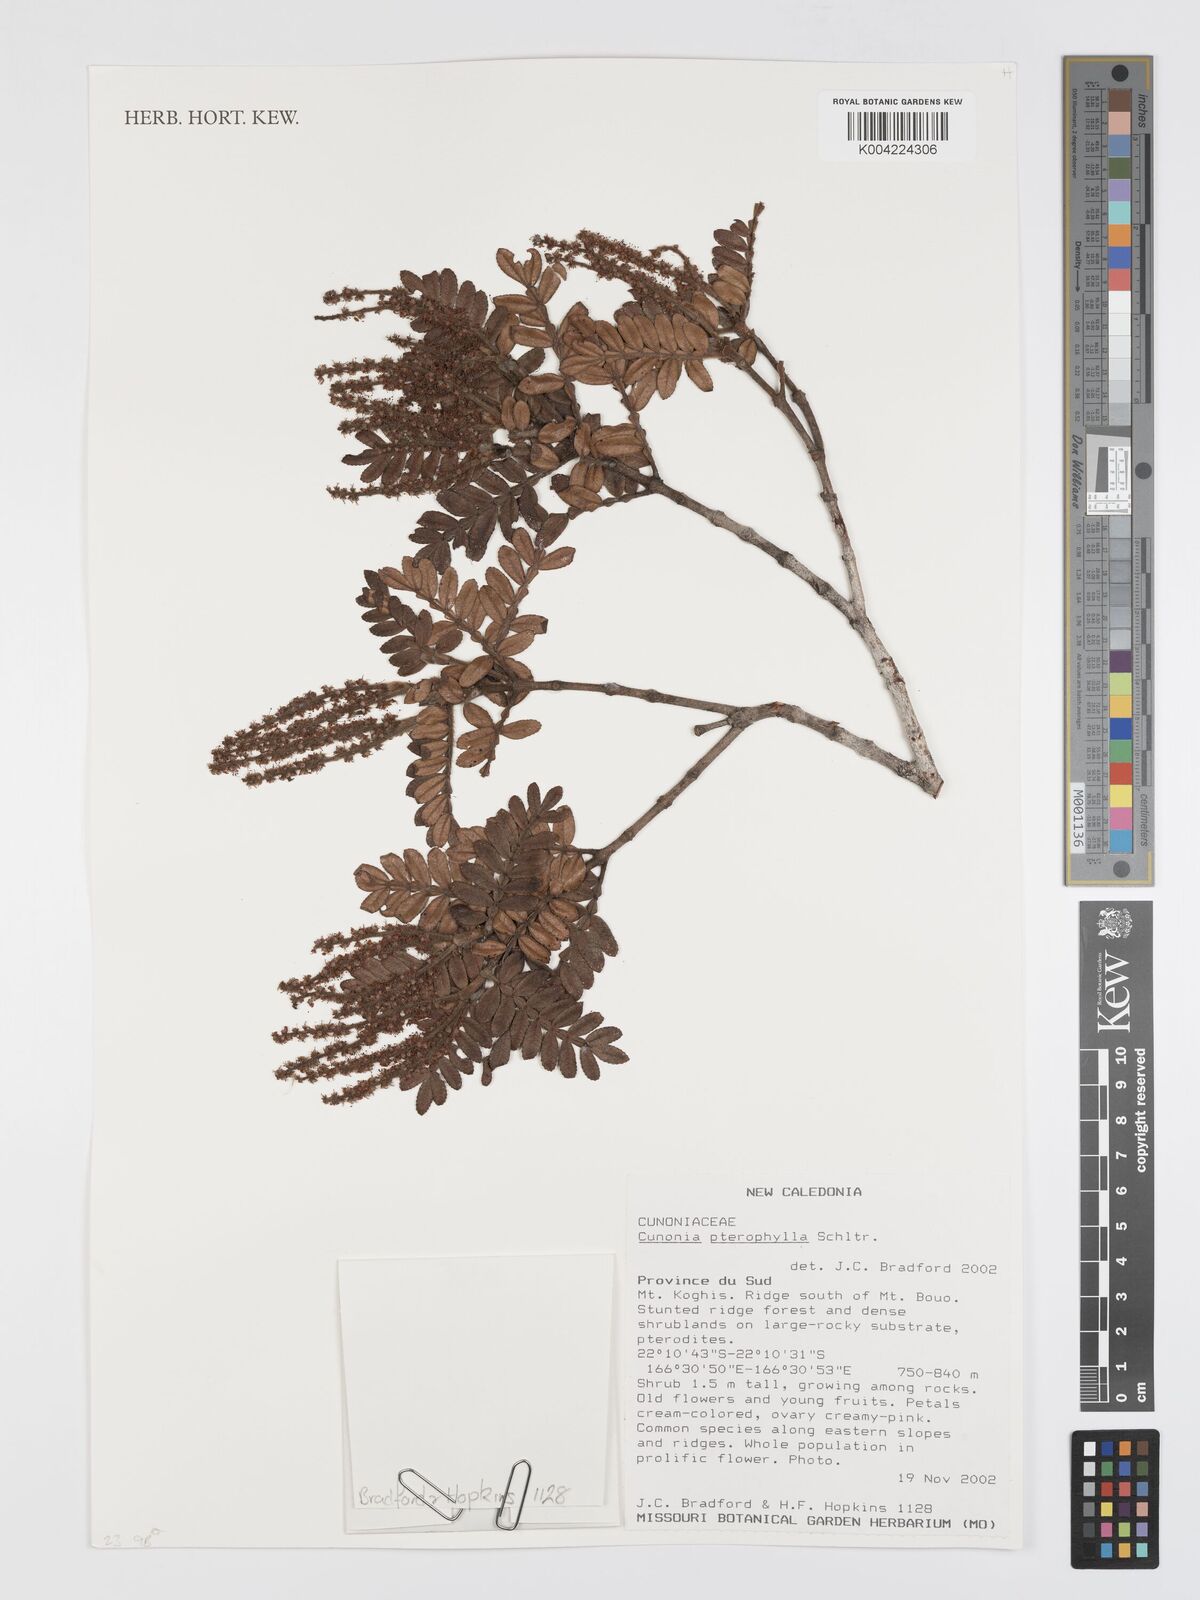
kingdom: Plantae
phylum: Tracheophyta
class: Magnoliopsida
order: Oxalidales
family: Cunoniaceae
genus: Cunonia
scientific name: Cunonia pterophylla
